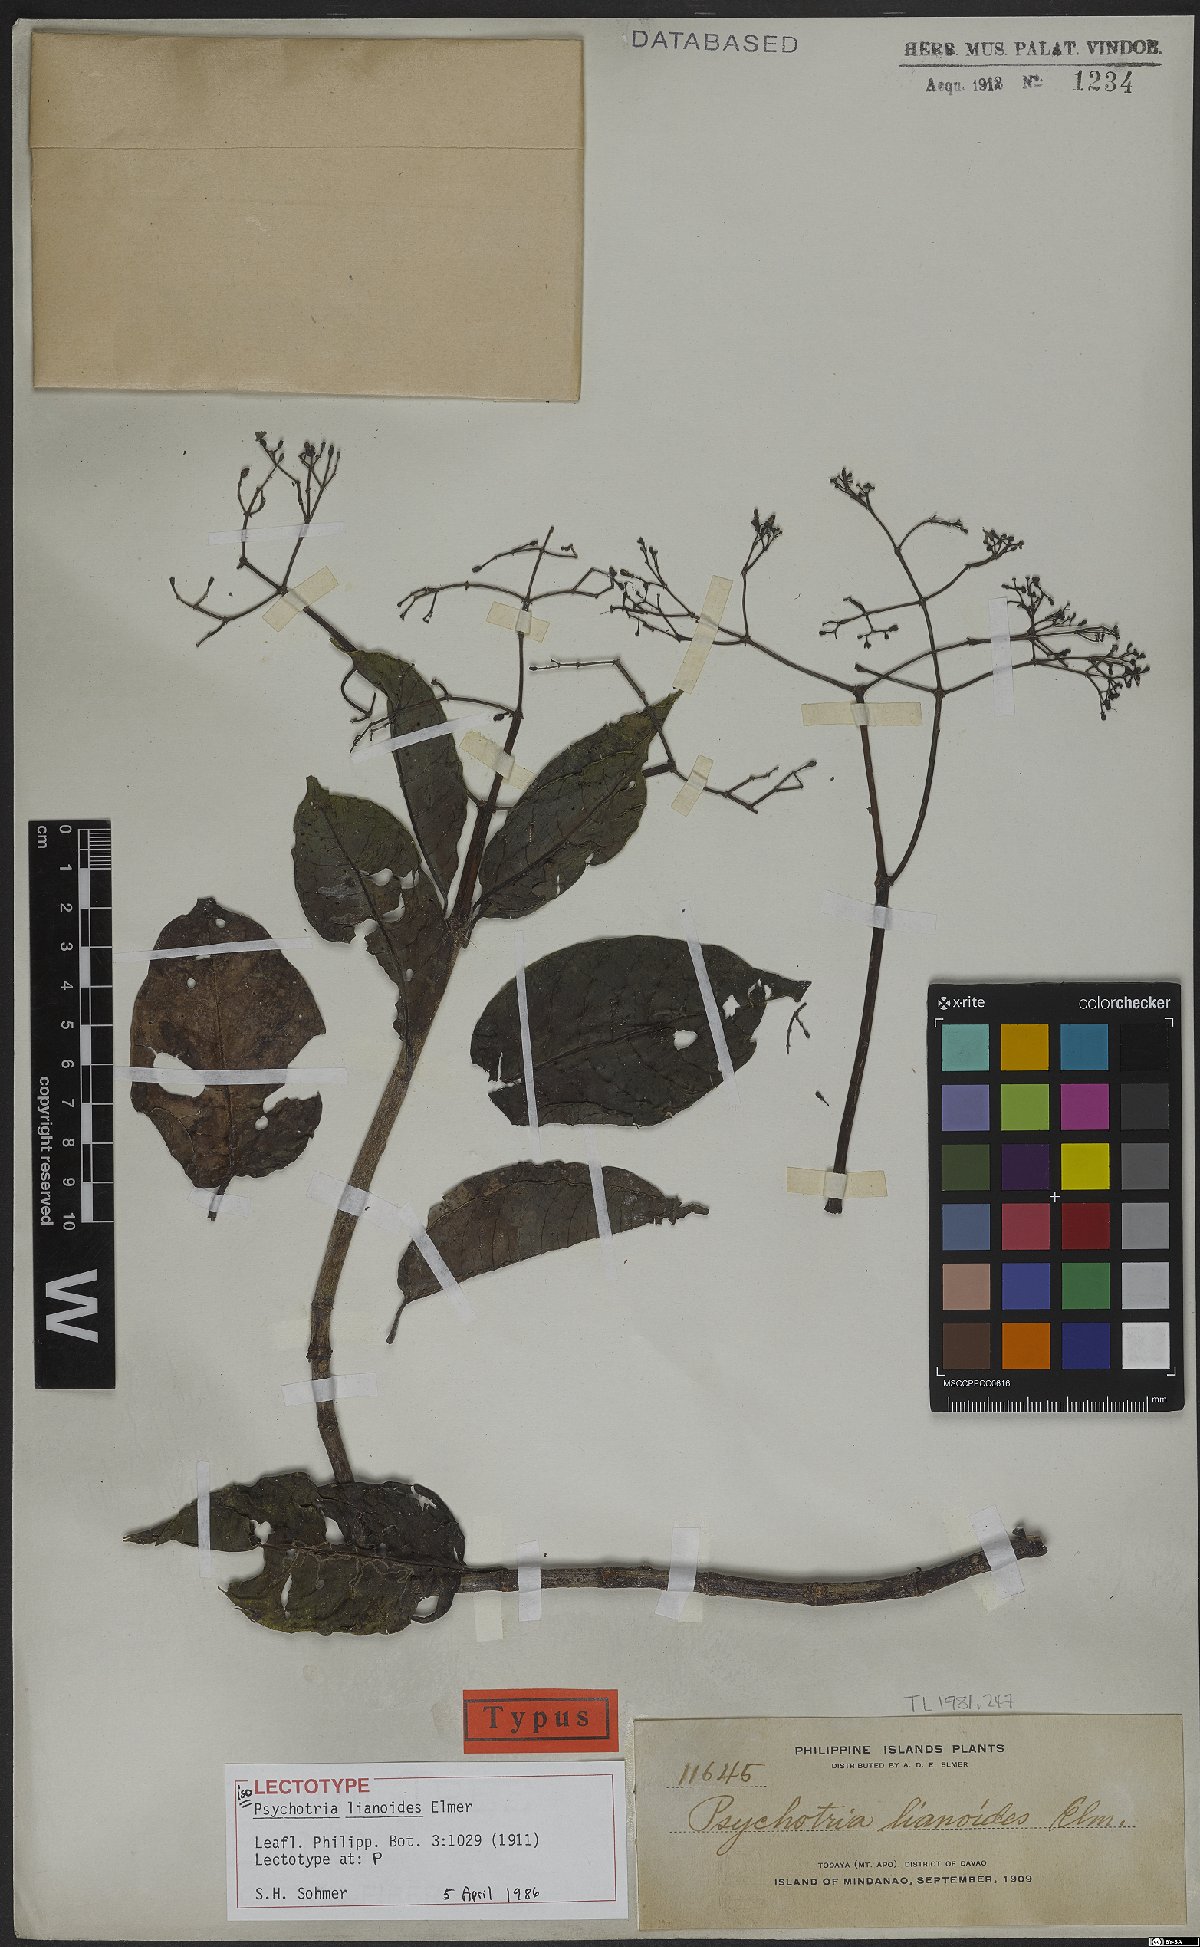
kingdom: Plantae
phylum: Tracheophyta
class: Magnoliopsida
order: Gentianales
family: Rubiaceae
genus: Psychotria
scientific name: Psychotria lianoides
